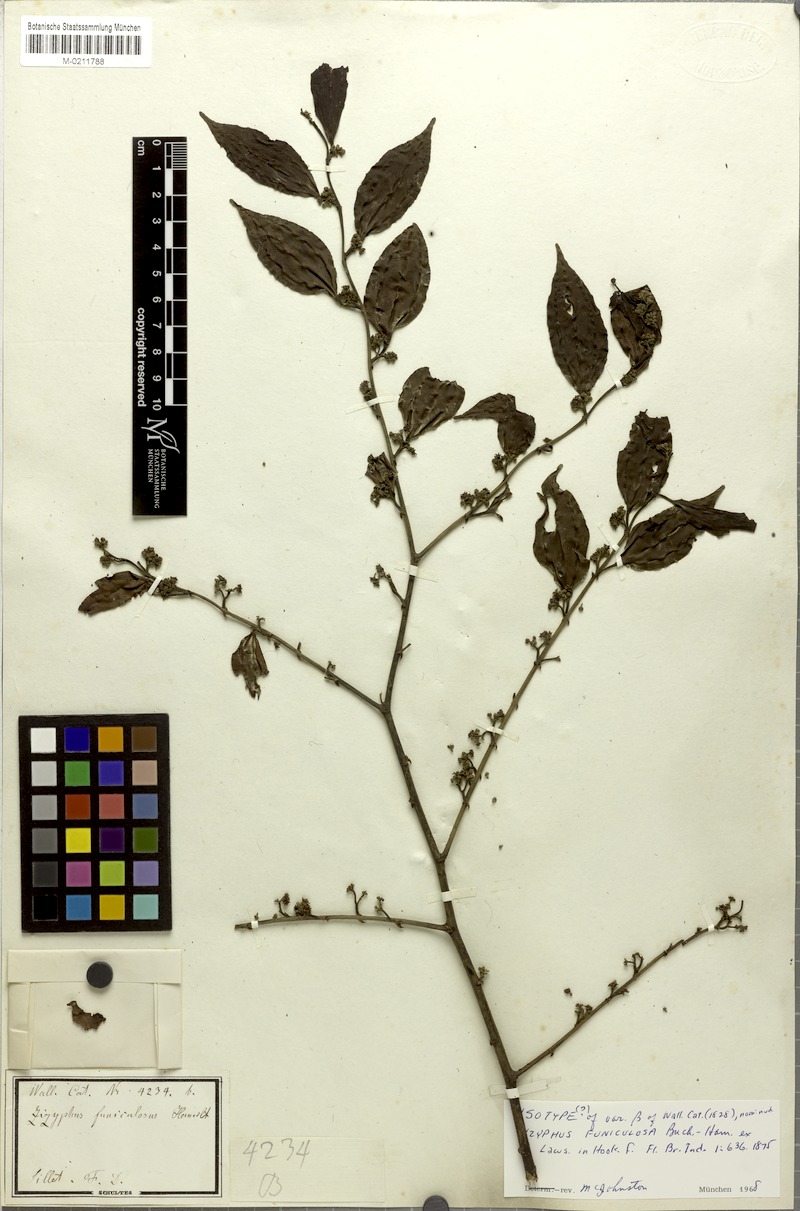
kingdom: Plantae
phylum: Tracheophyta
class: Magnoliopsida
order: Rosales
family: Rhamnaceae
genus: Ziziphus
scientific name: Ziziphus funiculosa
